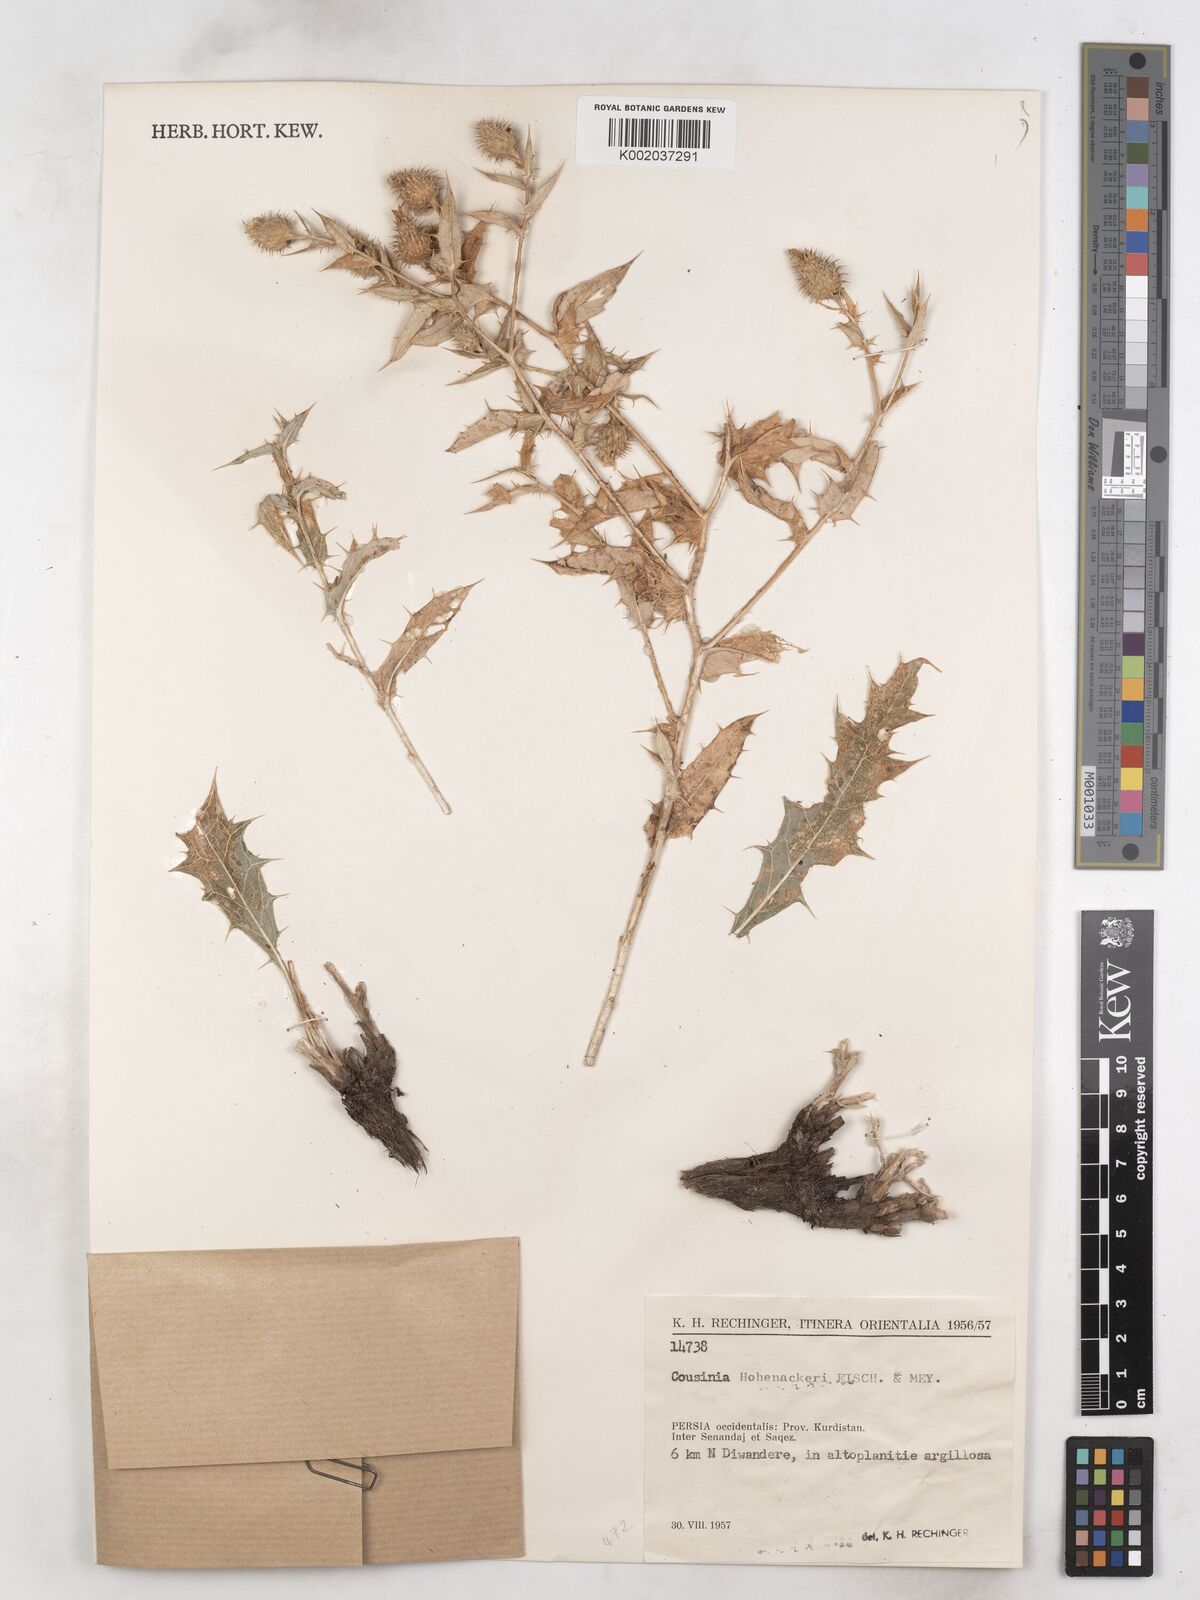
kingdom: Plantae
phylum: Tracheophyta
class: Magnoliopsida
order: Asterales
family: Asteraceae
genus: Cousinia
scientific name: Cousinia hohenackeri
